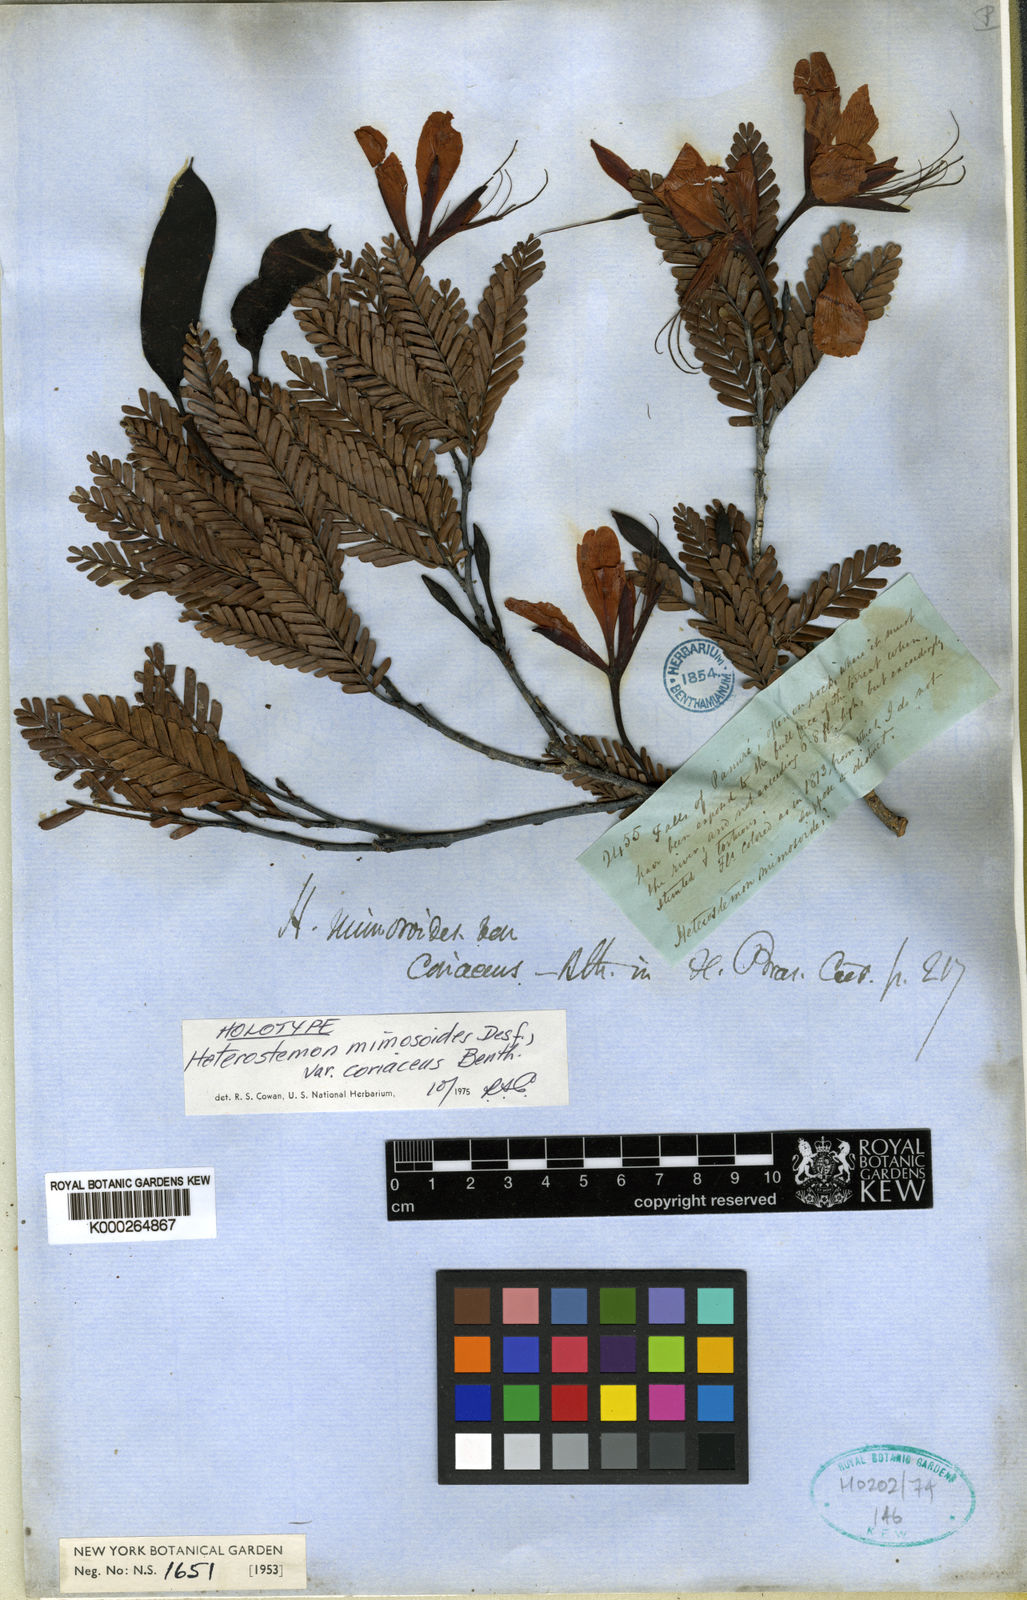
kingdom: Plantae
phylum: Tracheophyta
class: Magnoliopsida
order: Fabales
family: Fabaceae
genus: Heterostemon
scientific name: Heterostemon mimosoides
